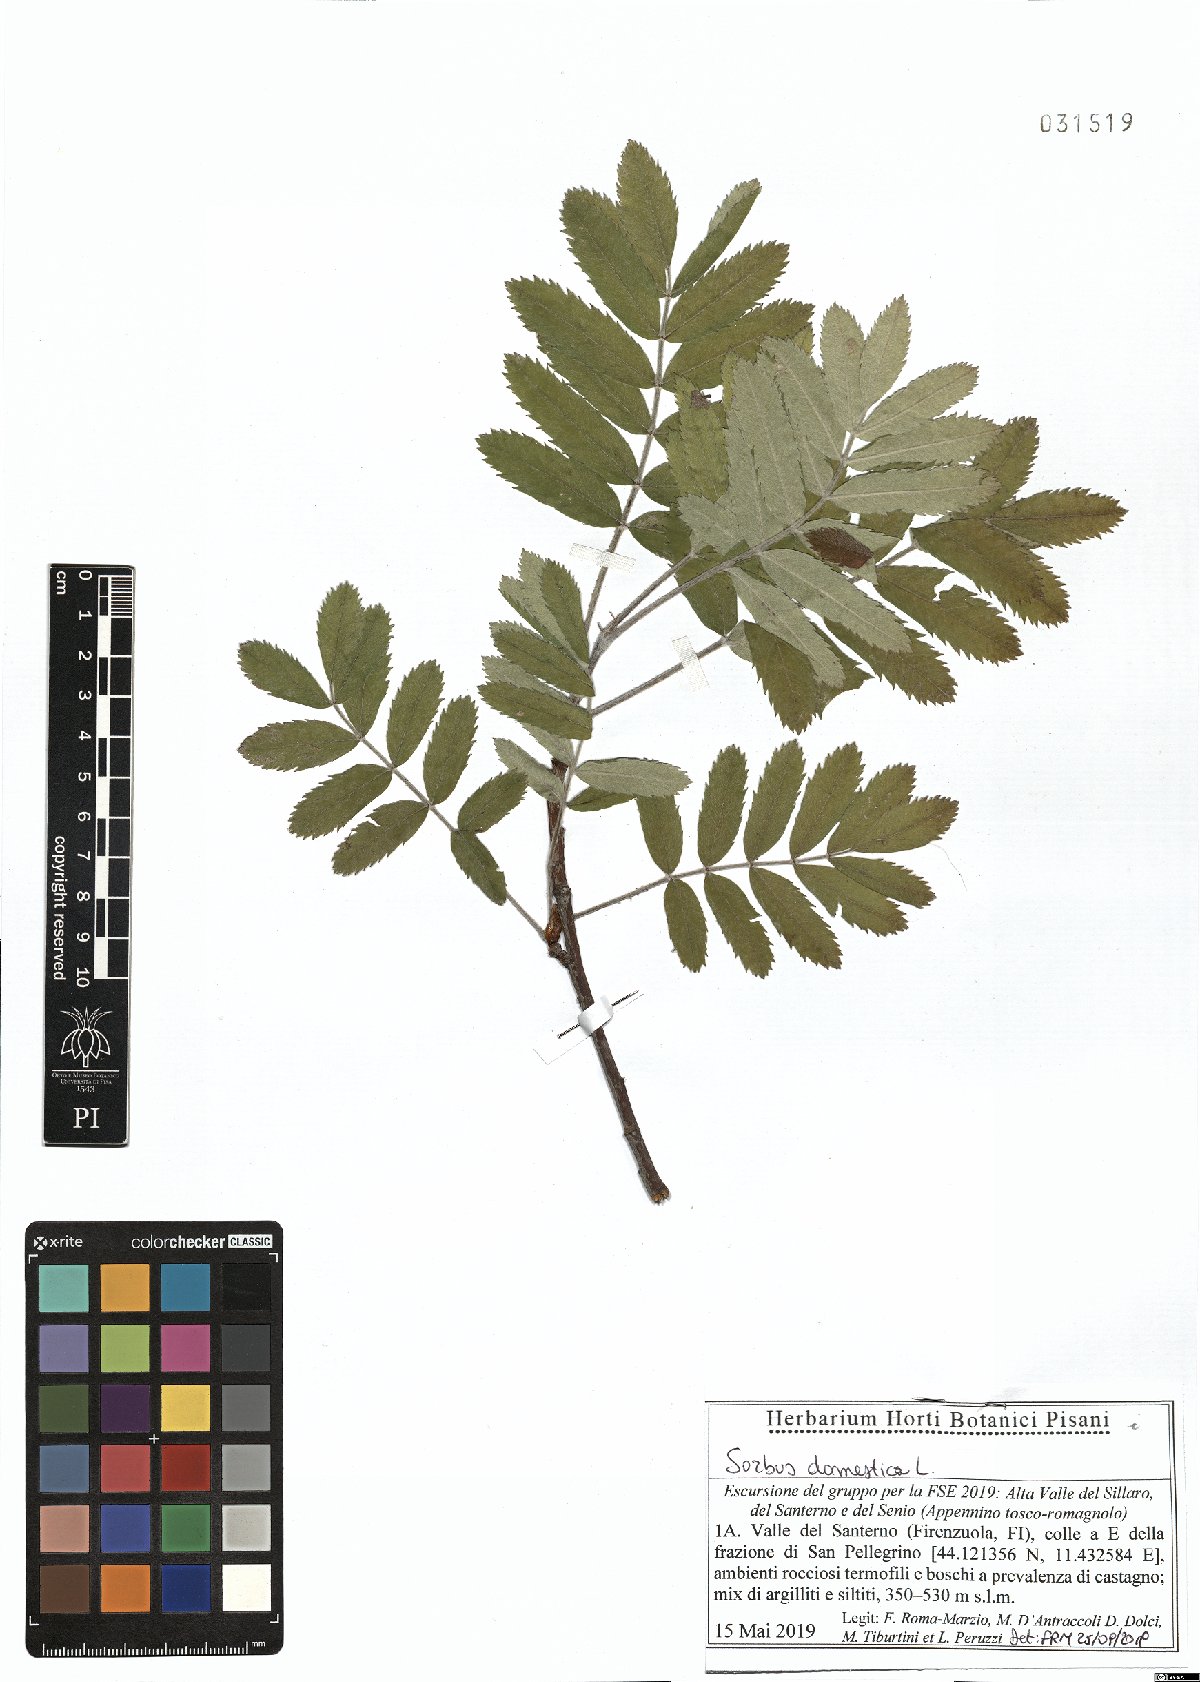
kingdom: Plantae
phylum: Tracheophyta
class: Magnoliopsida
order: Rosales
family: Rosaceae
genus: Cormus
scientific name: Cormus domestica
